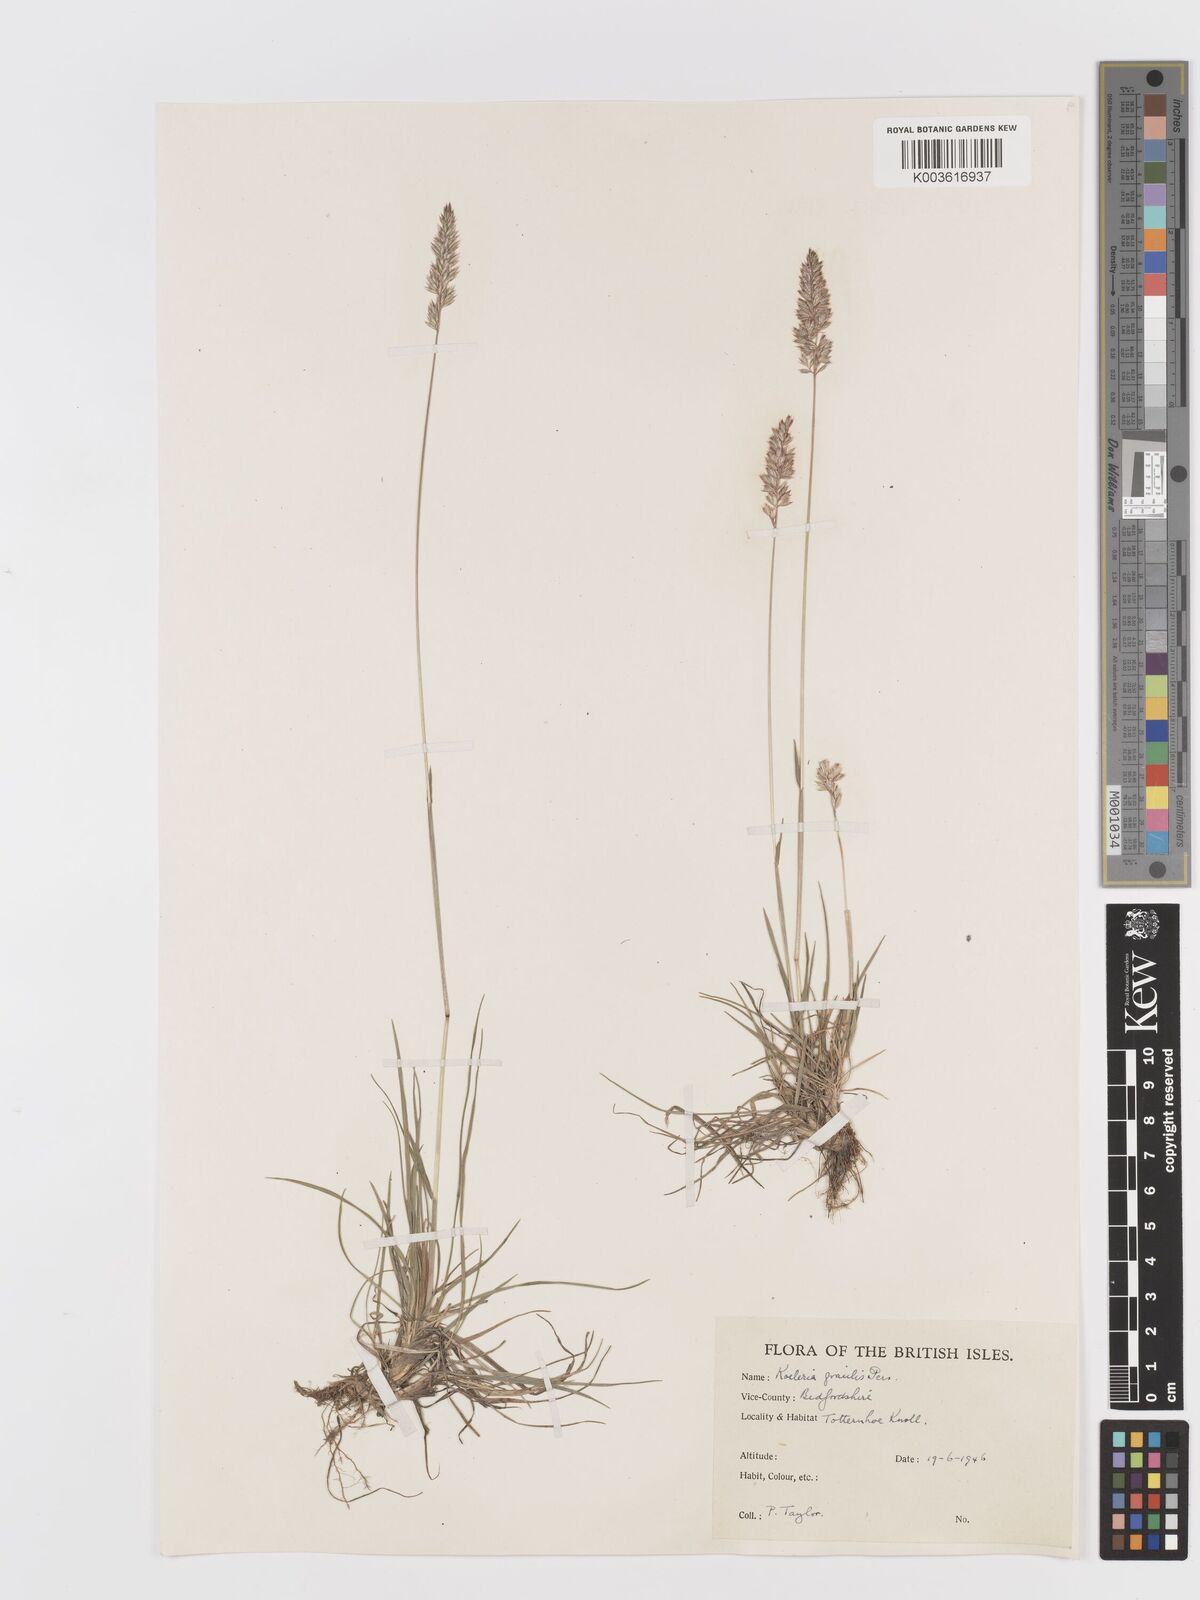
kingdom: Plantae
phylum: Tracheophyta
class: Liliopsida
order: Poales
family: Poaceae
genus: Koeleria
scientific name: Koeleria macrantha
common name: Crested hair-grass
